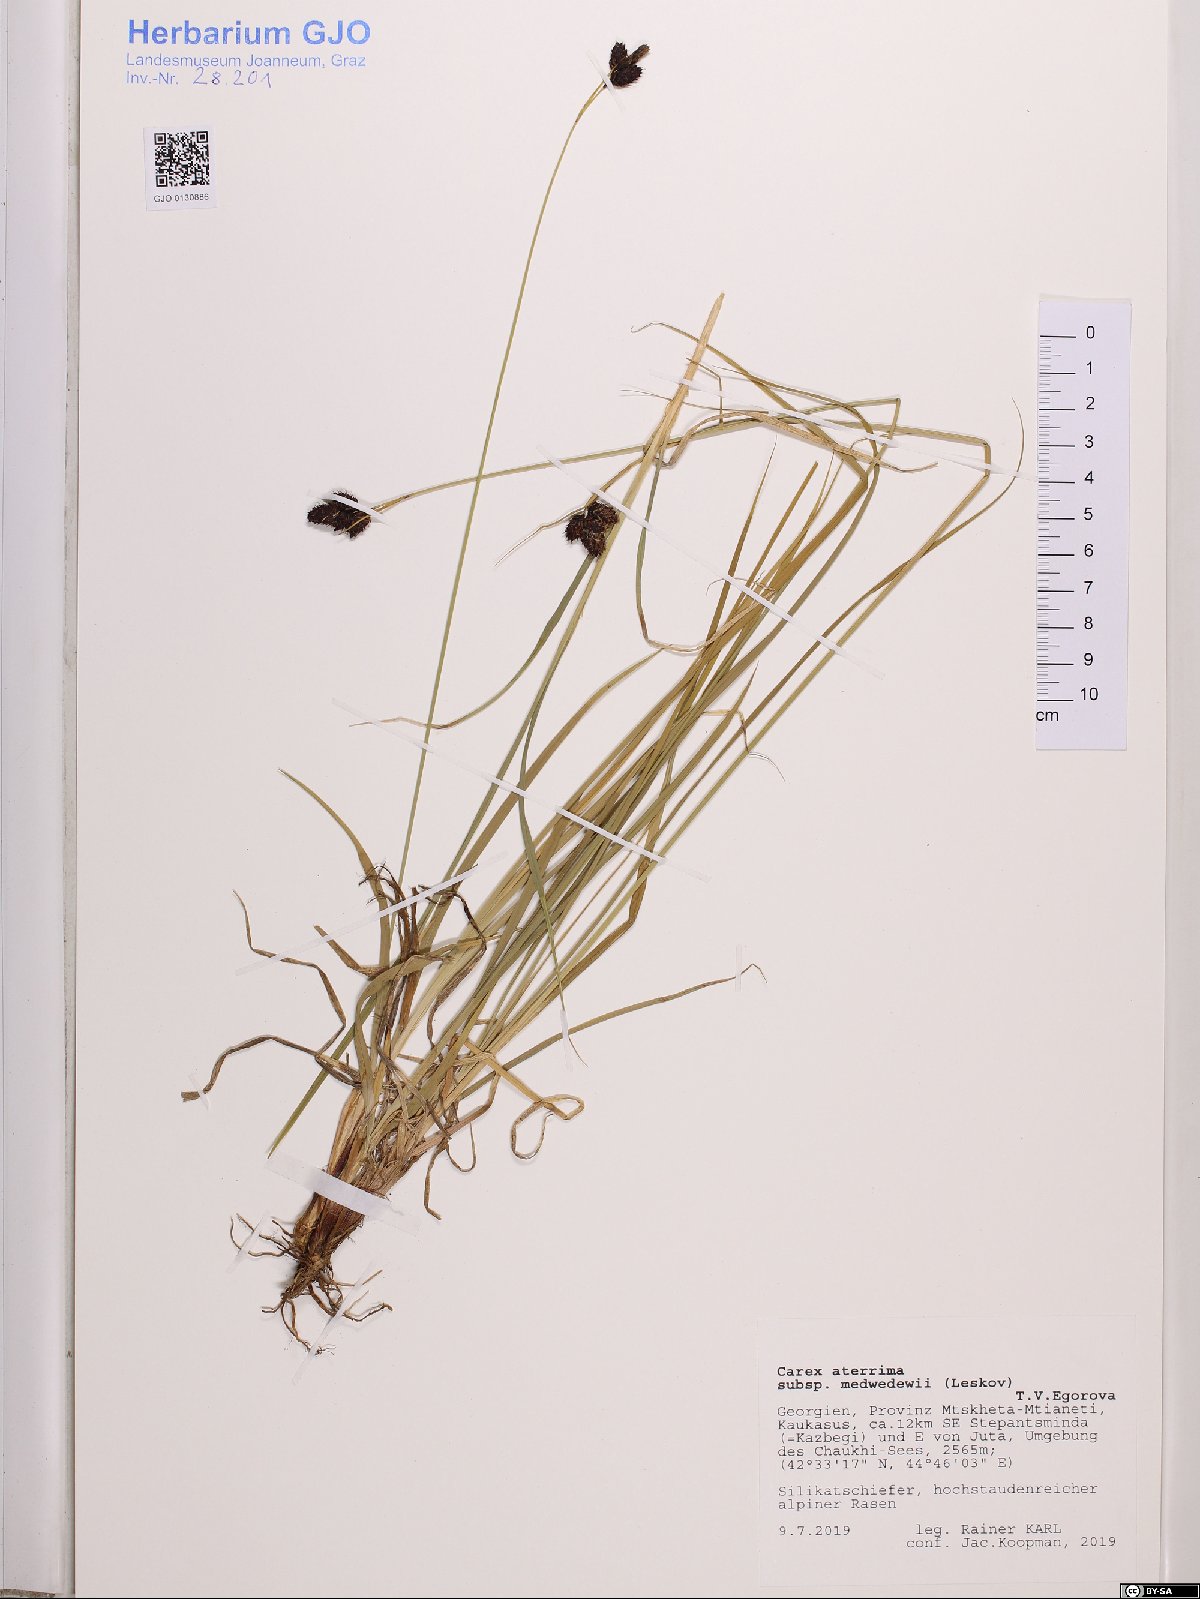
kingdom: Plantae
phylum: Tracheophyta
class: Liliopsida
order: Poales
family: Cyperaceae
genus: Carex
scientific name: Carex aterrima
